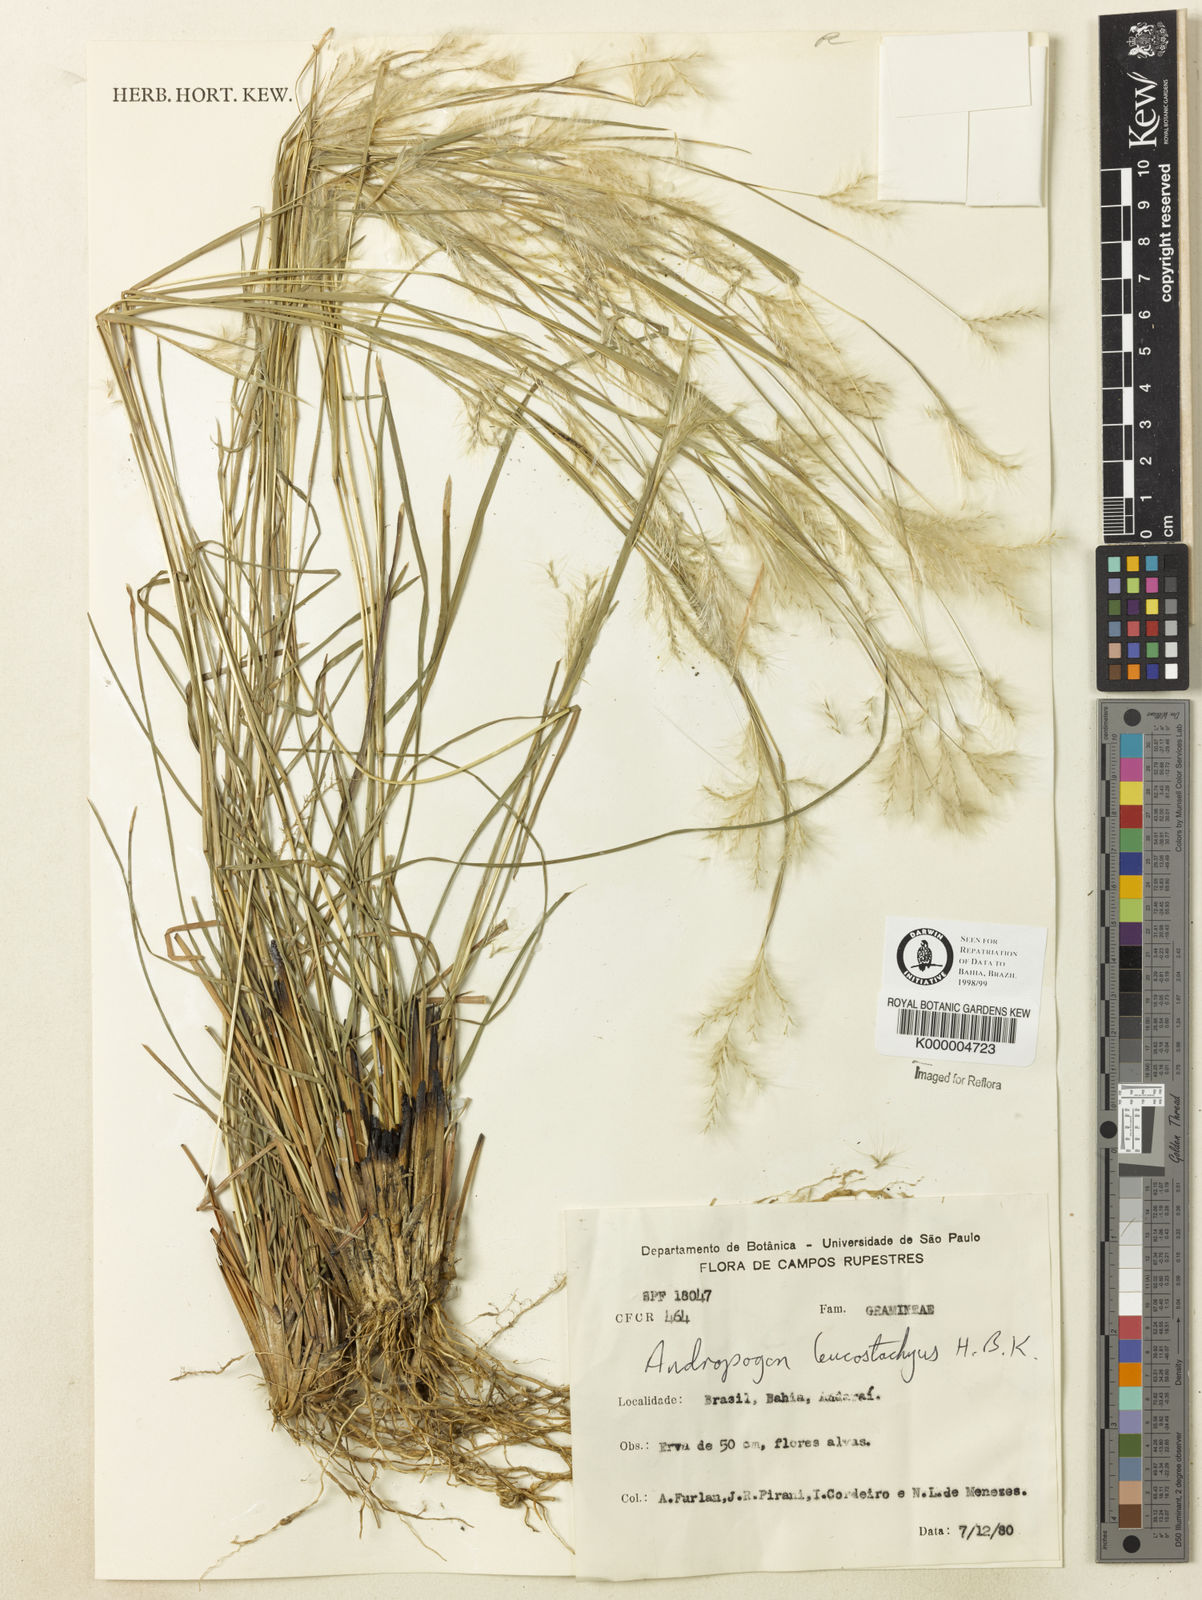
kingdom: Plantae
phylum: Tracheophyta
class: Liliopsida
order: Poales
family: Poaceae
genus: Andropogon
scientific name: Andropogon leucostachyus
